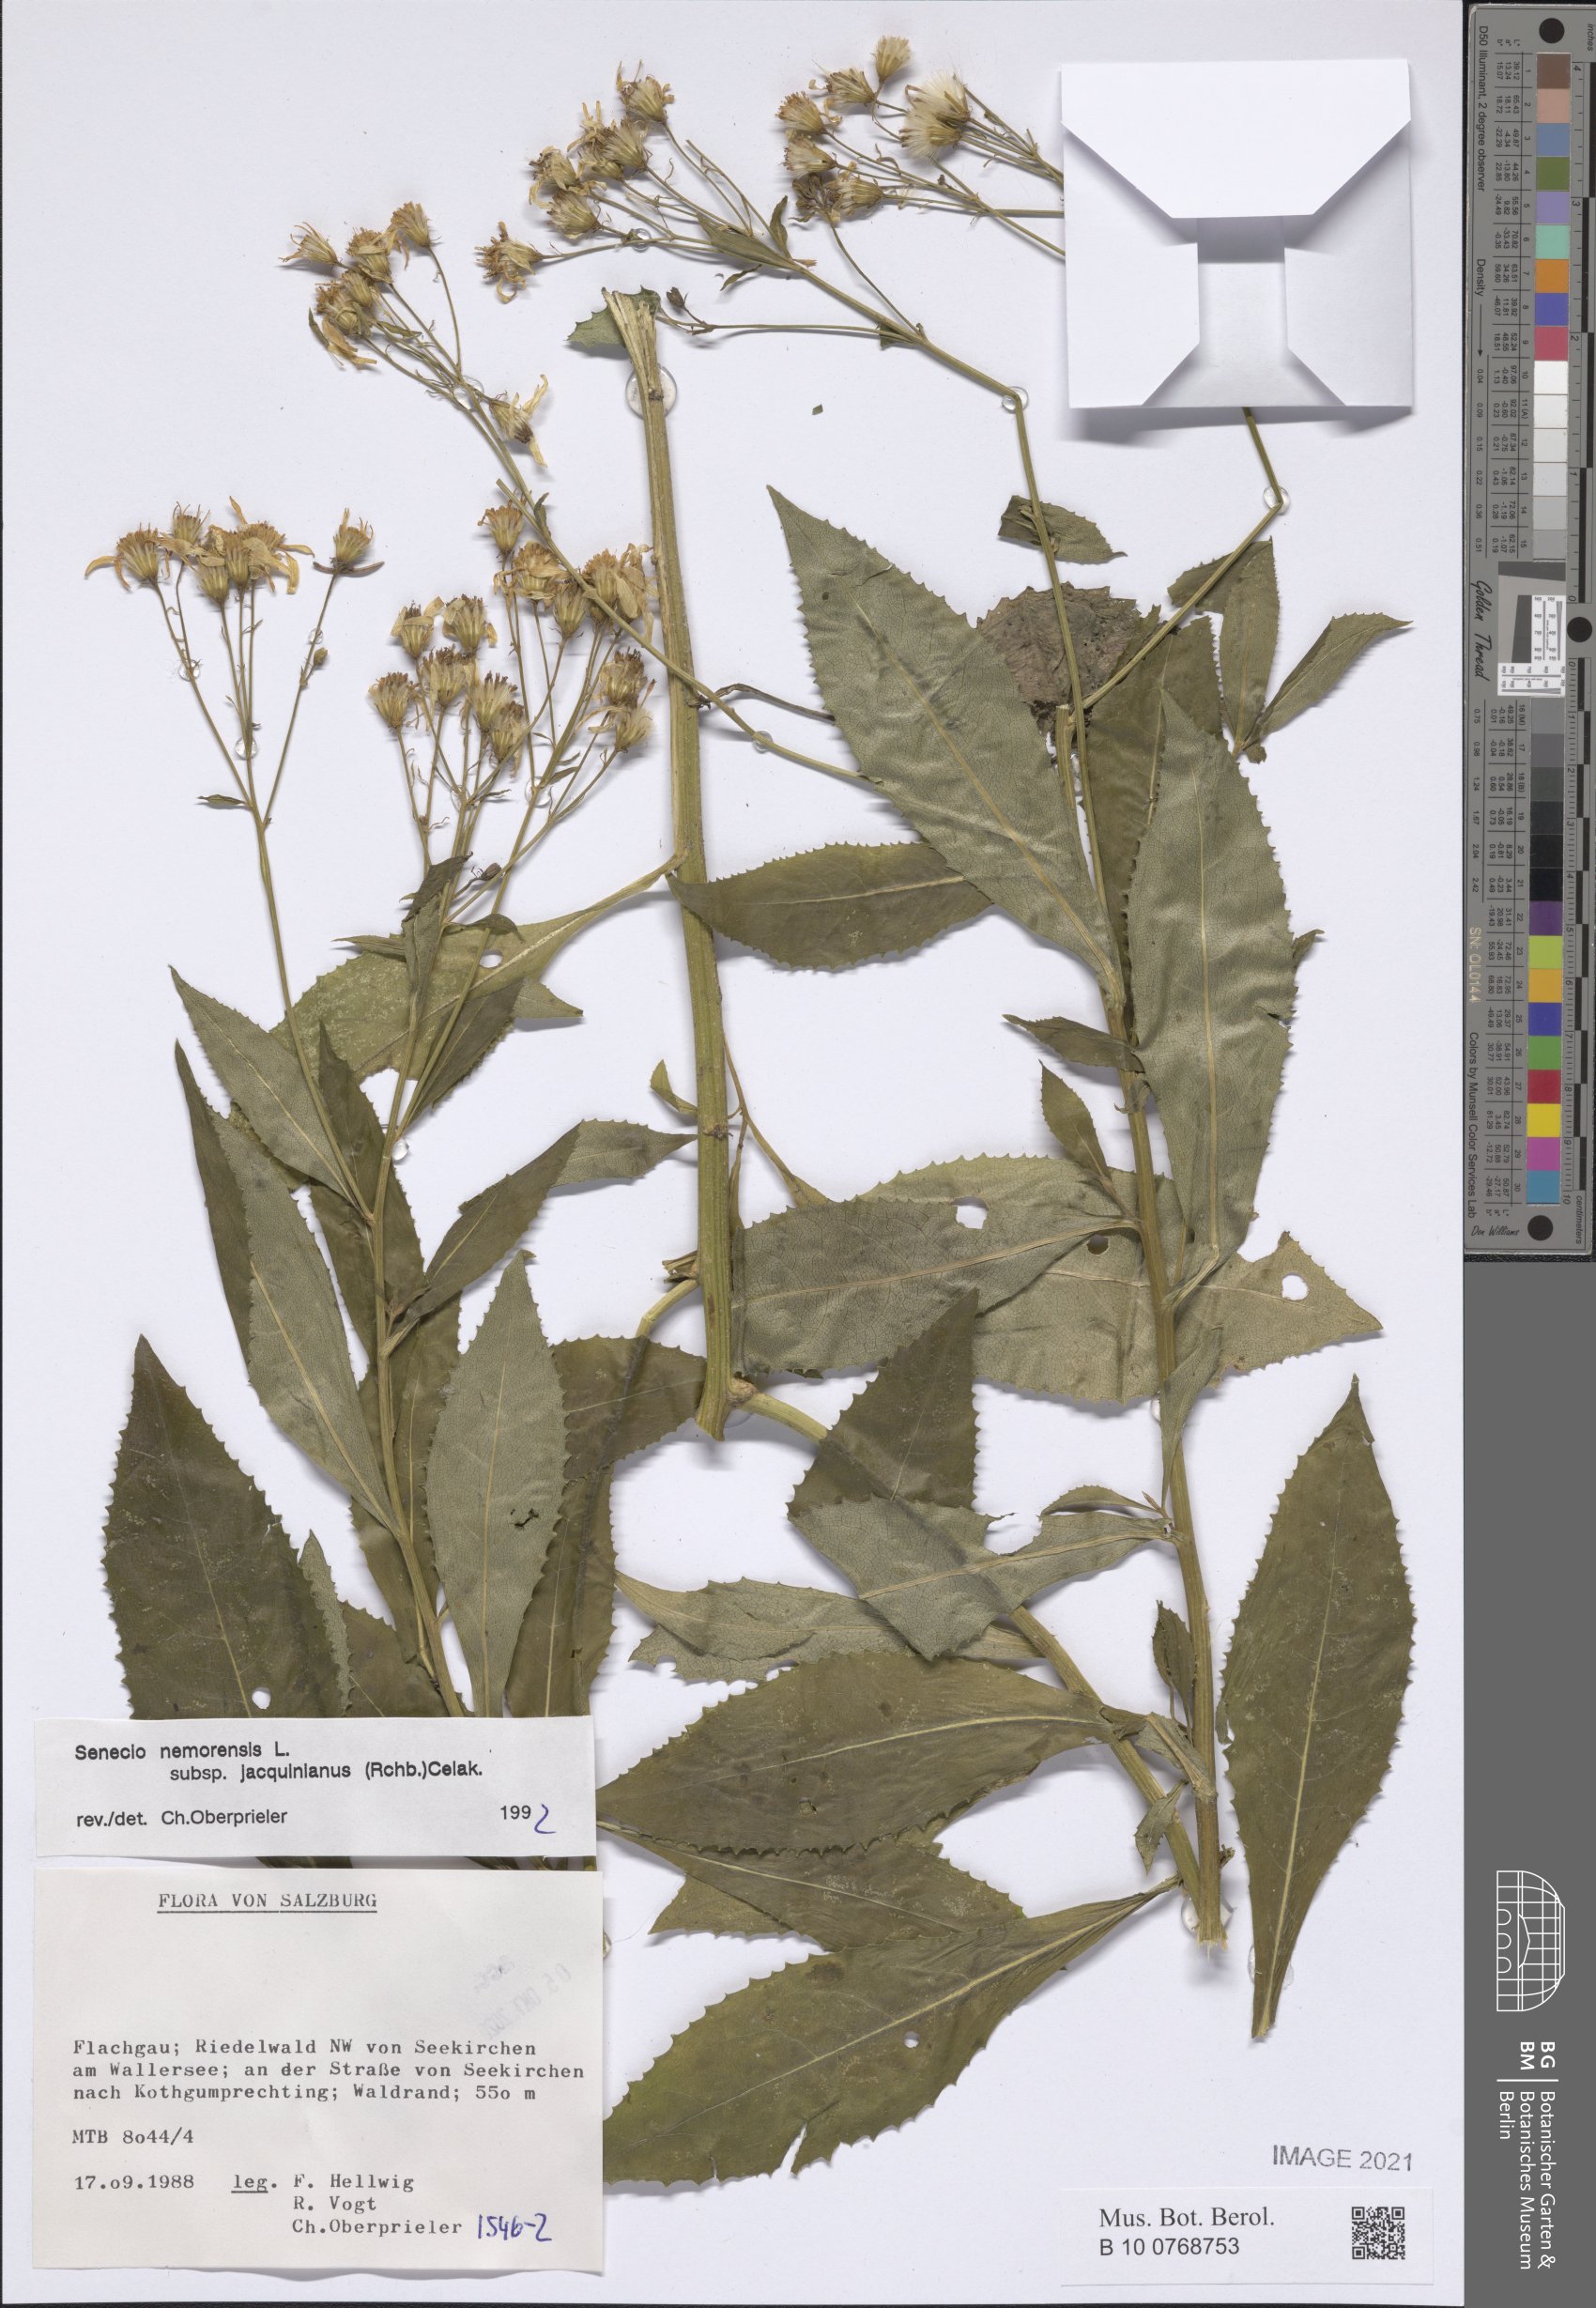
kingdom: Plantae
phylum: Tracheophyta
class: Magnoliopsida
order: Asterales
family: Asteraceae
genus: Senecio
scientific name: Senecio germanicus
